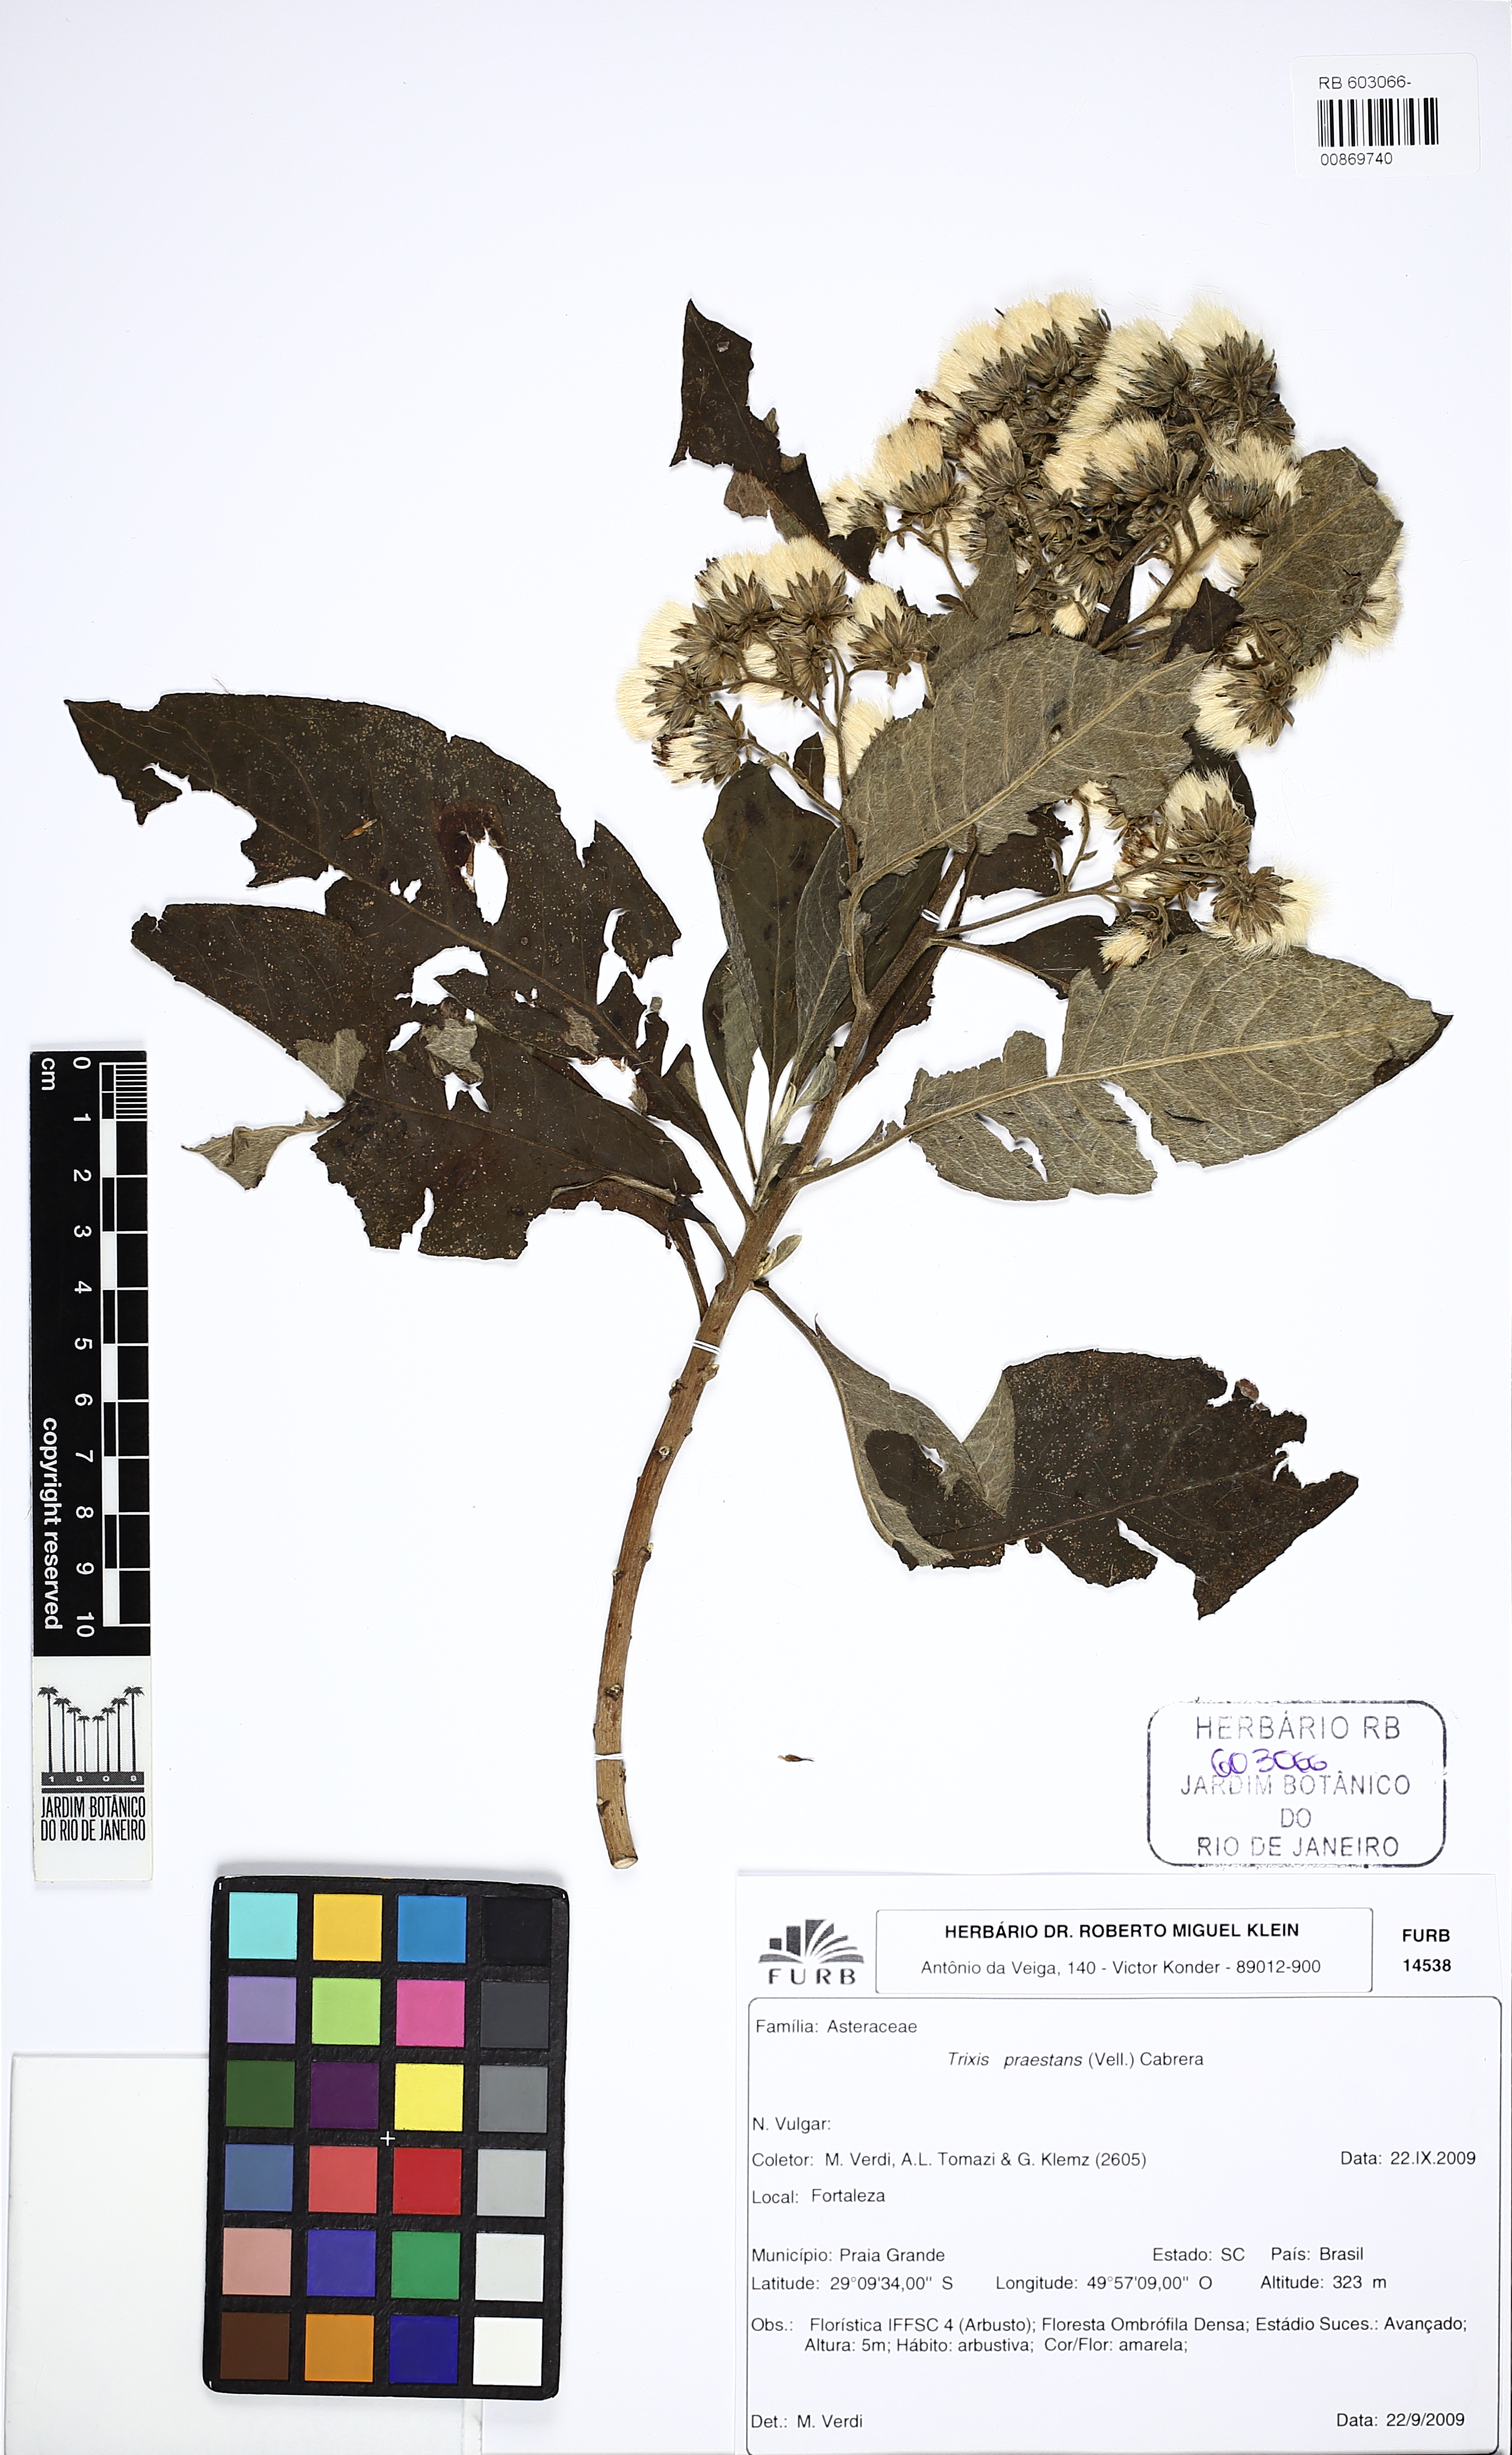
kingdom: Plantae
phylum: Tracheophyta
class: Magnoliopsida
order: Asterales
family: Asteraceae
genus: Trixis
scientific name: Trixis praestans
